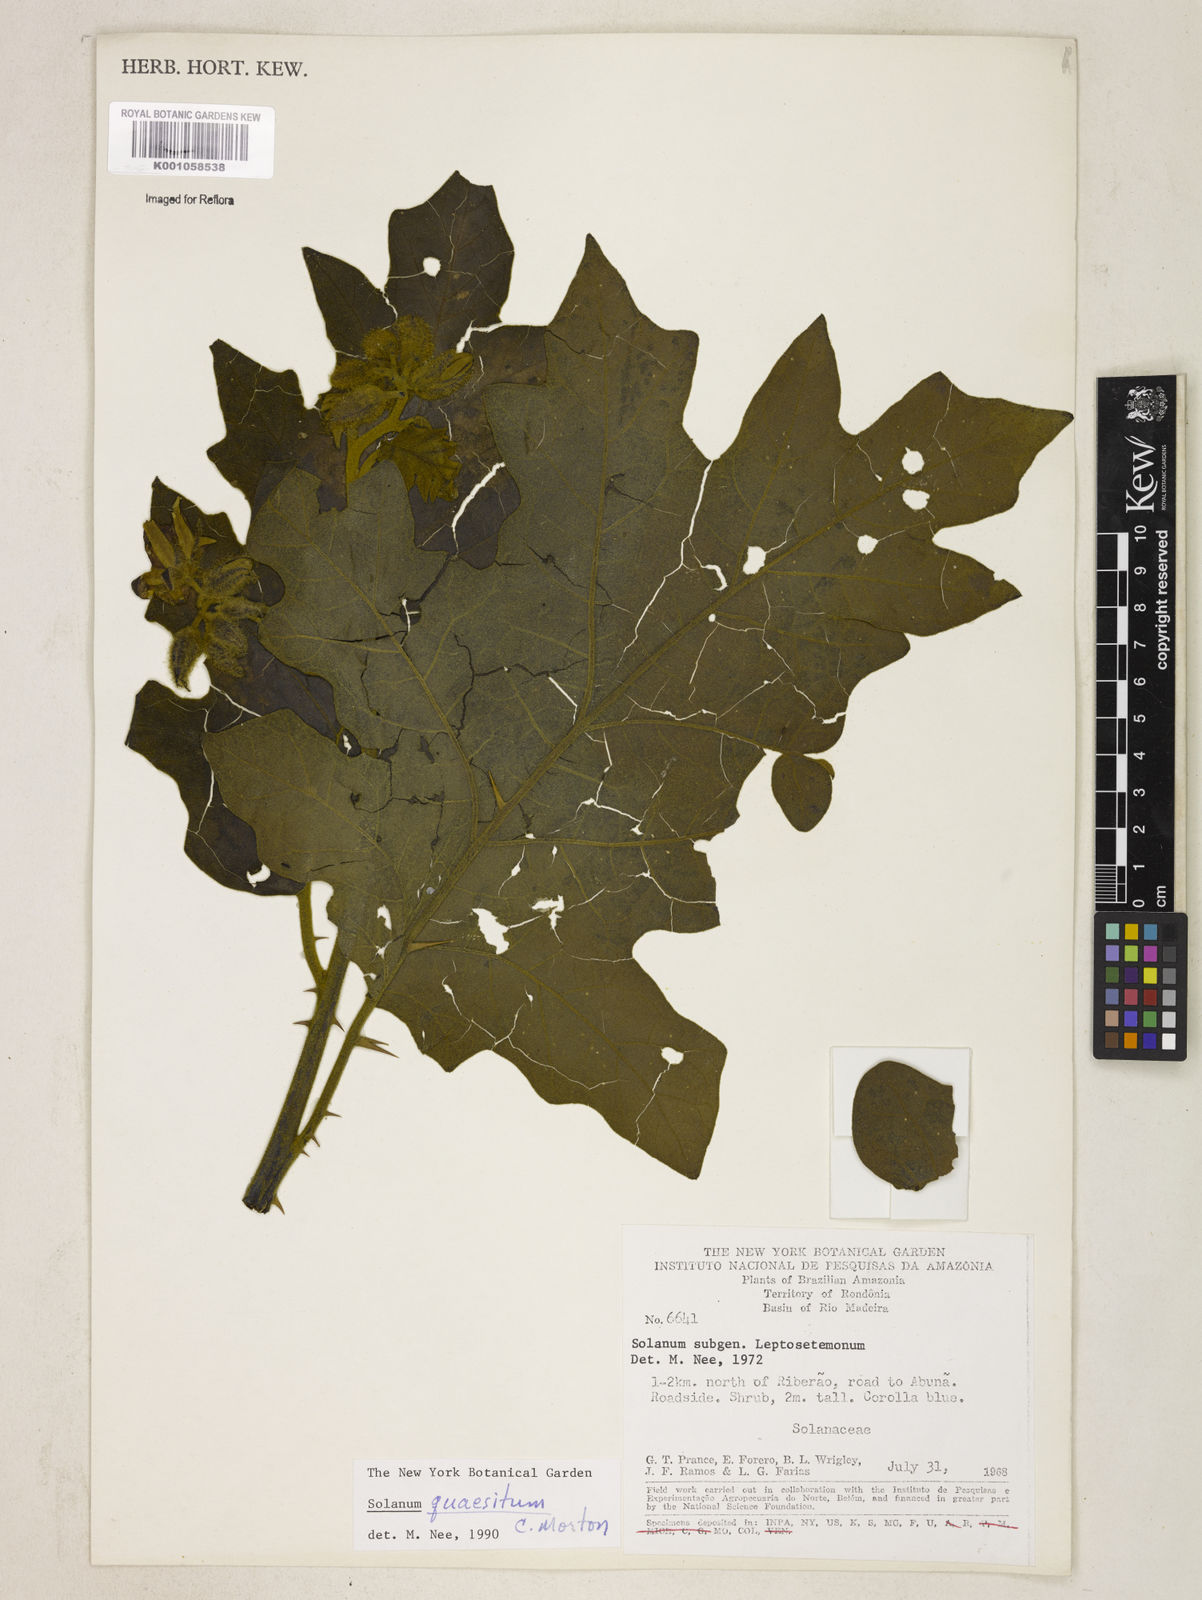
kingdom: Plantae
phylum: Tracheophyta
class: Magnoliopsida
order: Solanales
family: Solanaceae
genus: Solanum
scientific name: Solanum quaesitum
